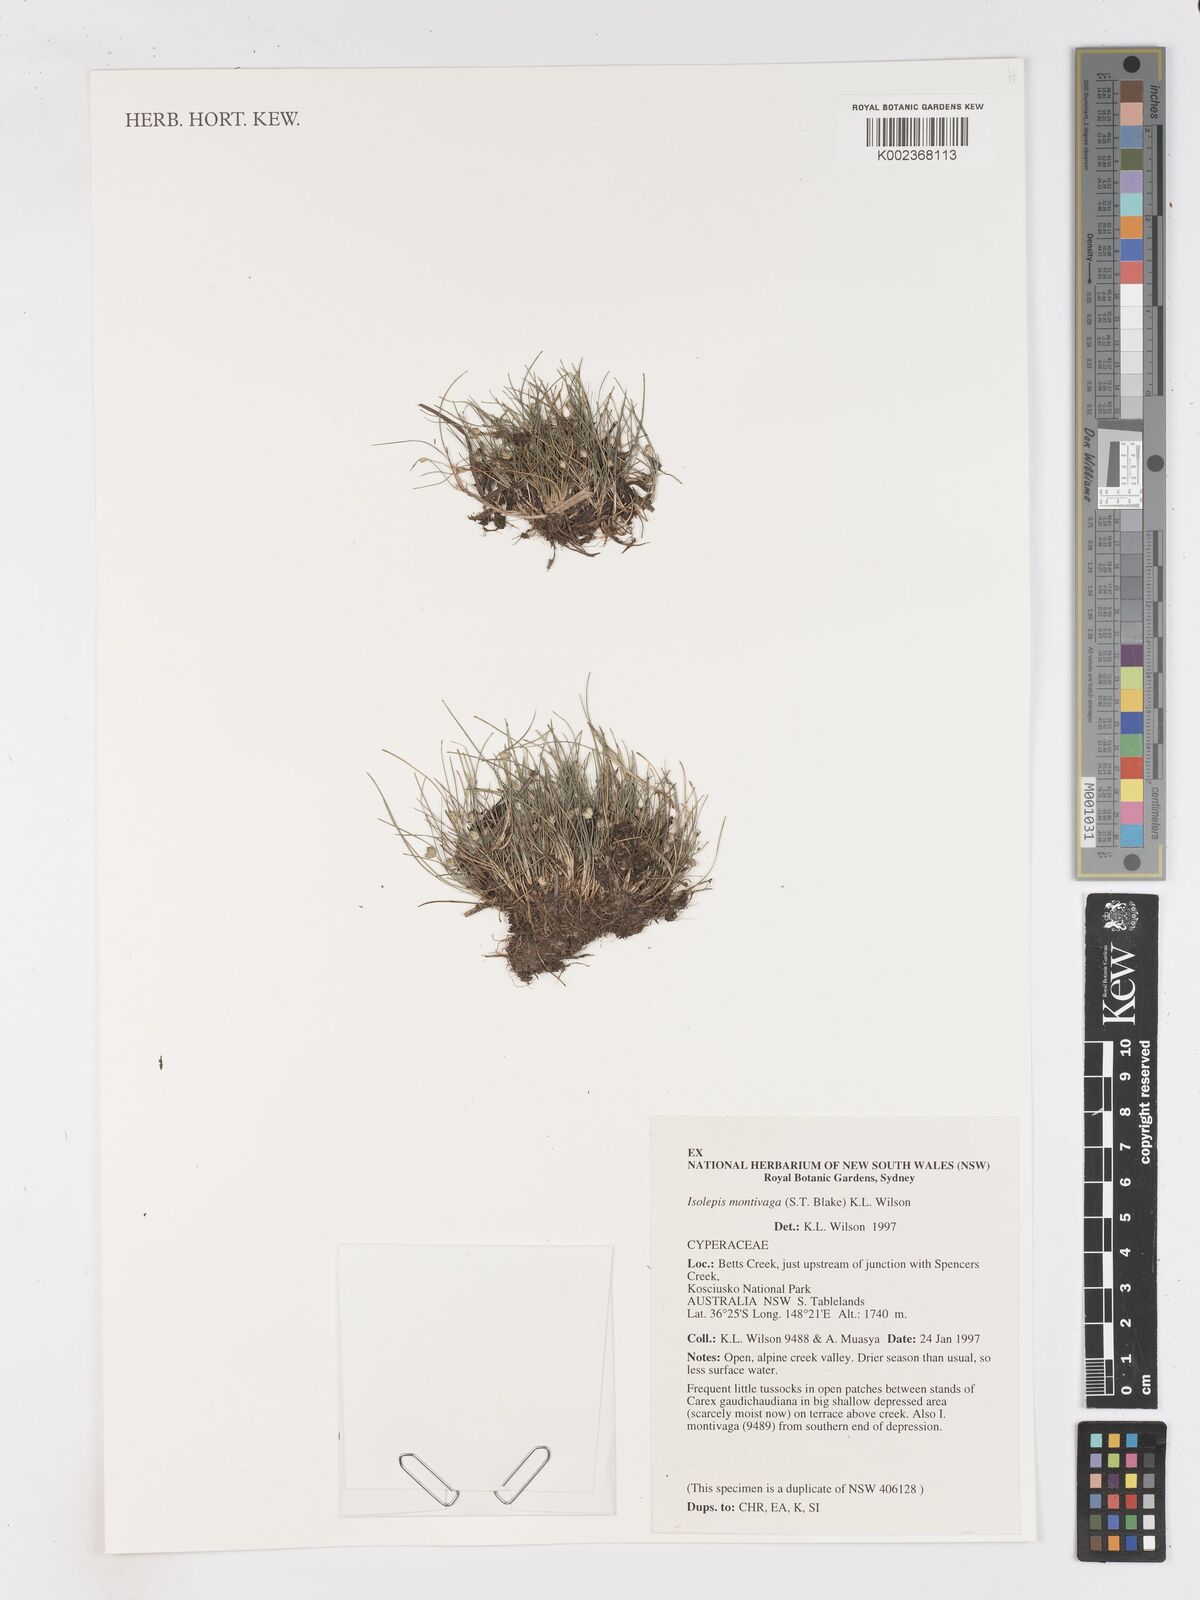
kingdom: Plantae
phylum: Tracheophyta
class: Liliopsida
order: Poales
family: Cyperaceae
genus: Isolepis
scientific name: Isolepis montivaga
